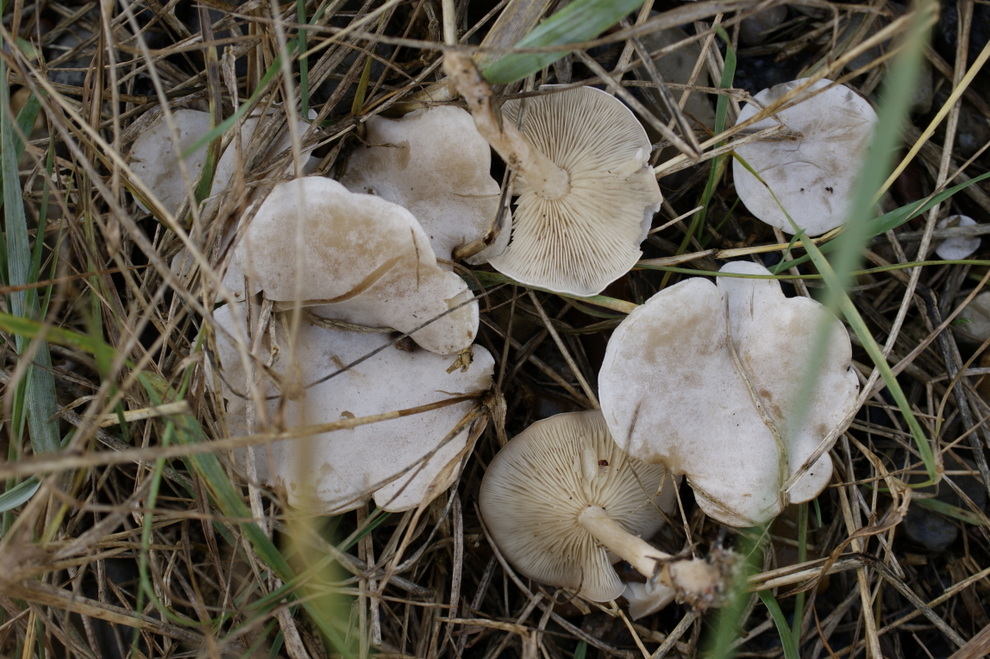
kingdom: Fungi
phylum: Basidiomycota
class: Agaricomycetes
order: Agaricales
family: Tricholomataceae
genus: Clitocybe
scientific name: Clitocybe rivulosa
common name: eng-tragthat
